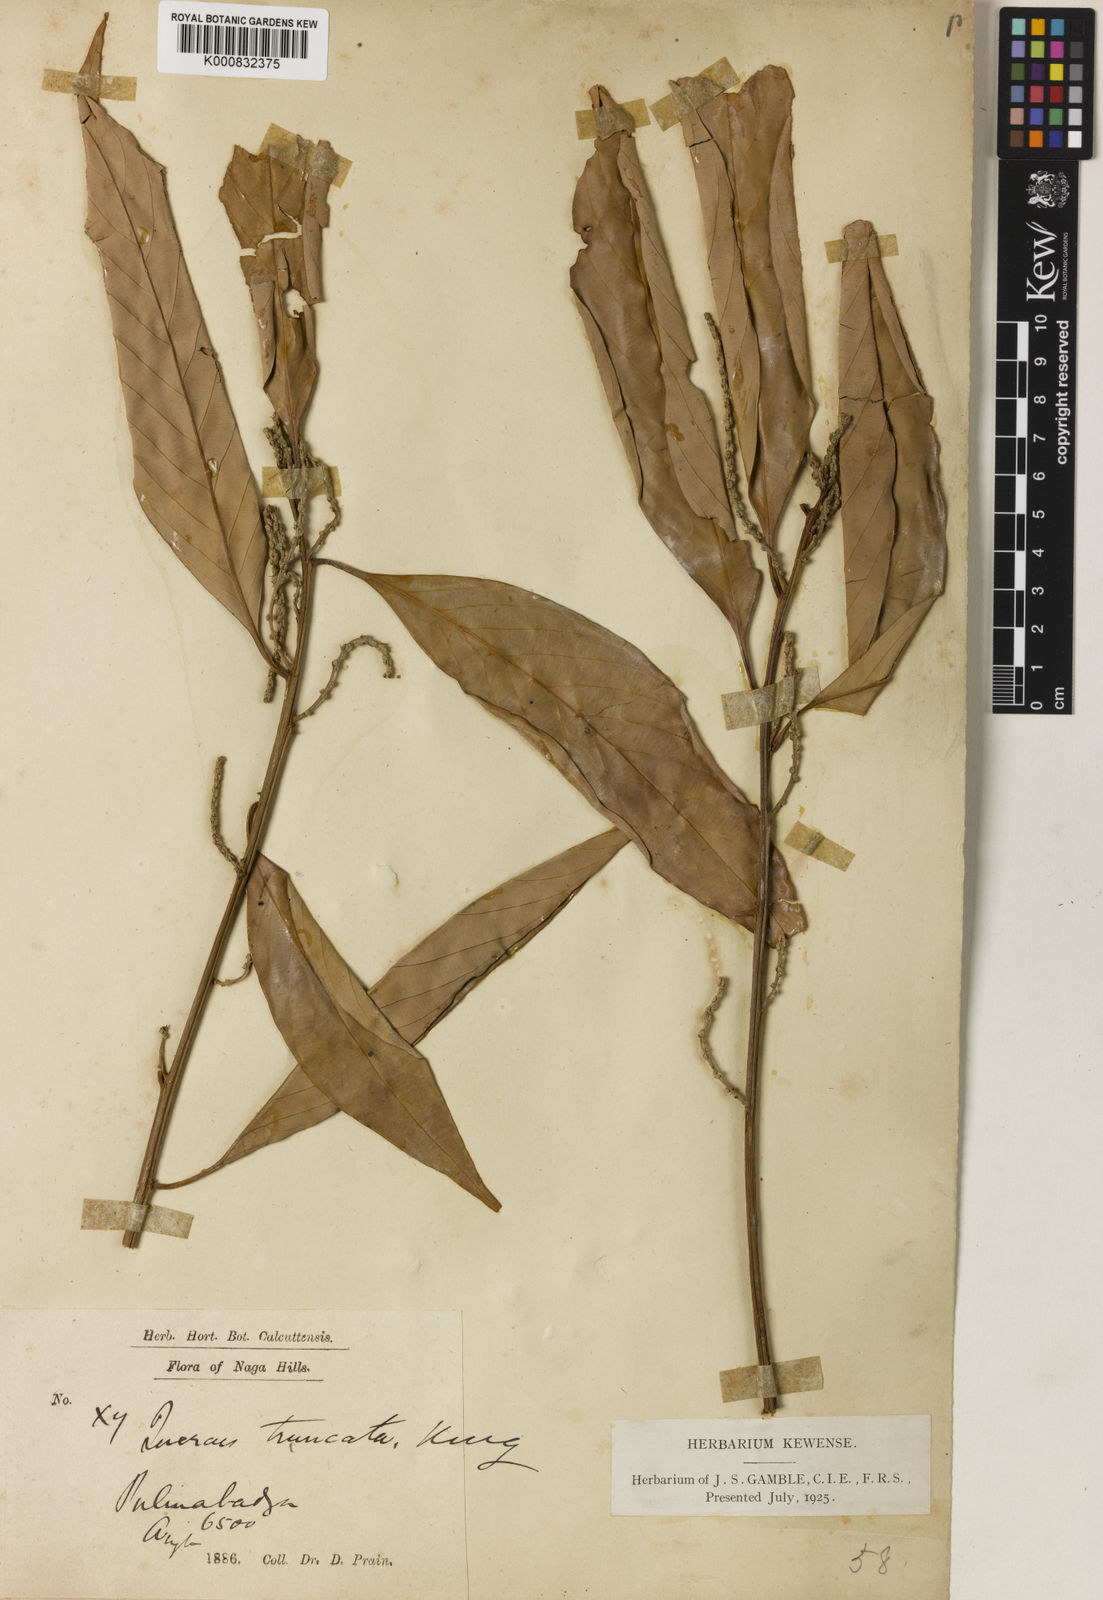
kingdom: Plantae
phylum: Tracheophyta
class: Magnoliopsida
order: Fagales
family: Fagaceae
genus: Lithocarpus
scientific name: Lithocarpus truncatus
